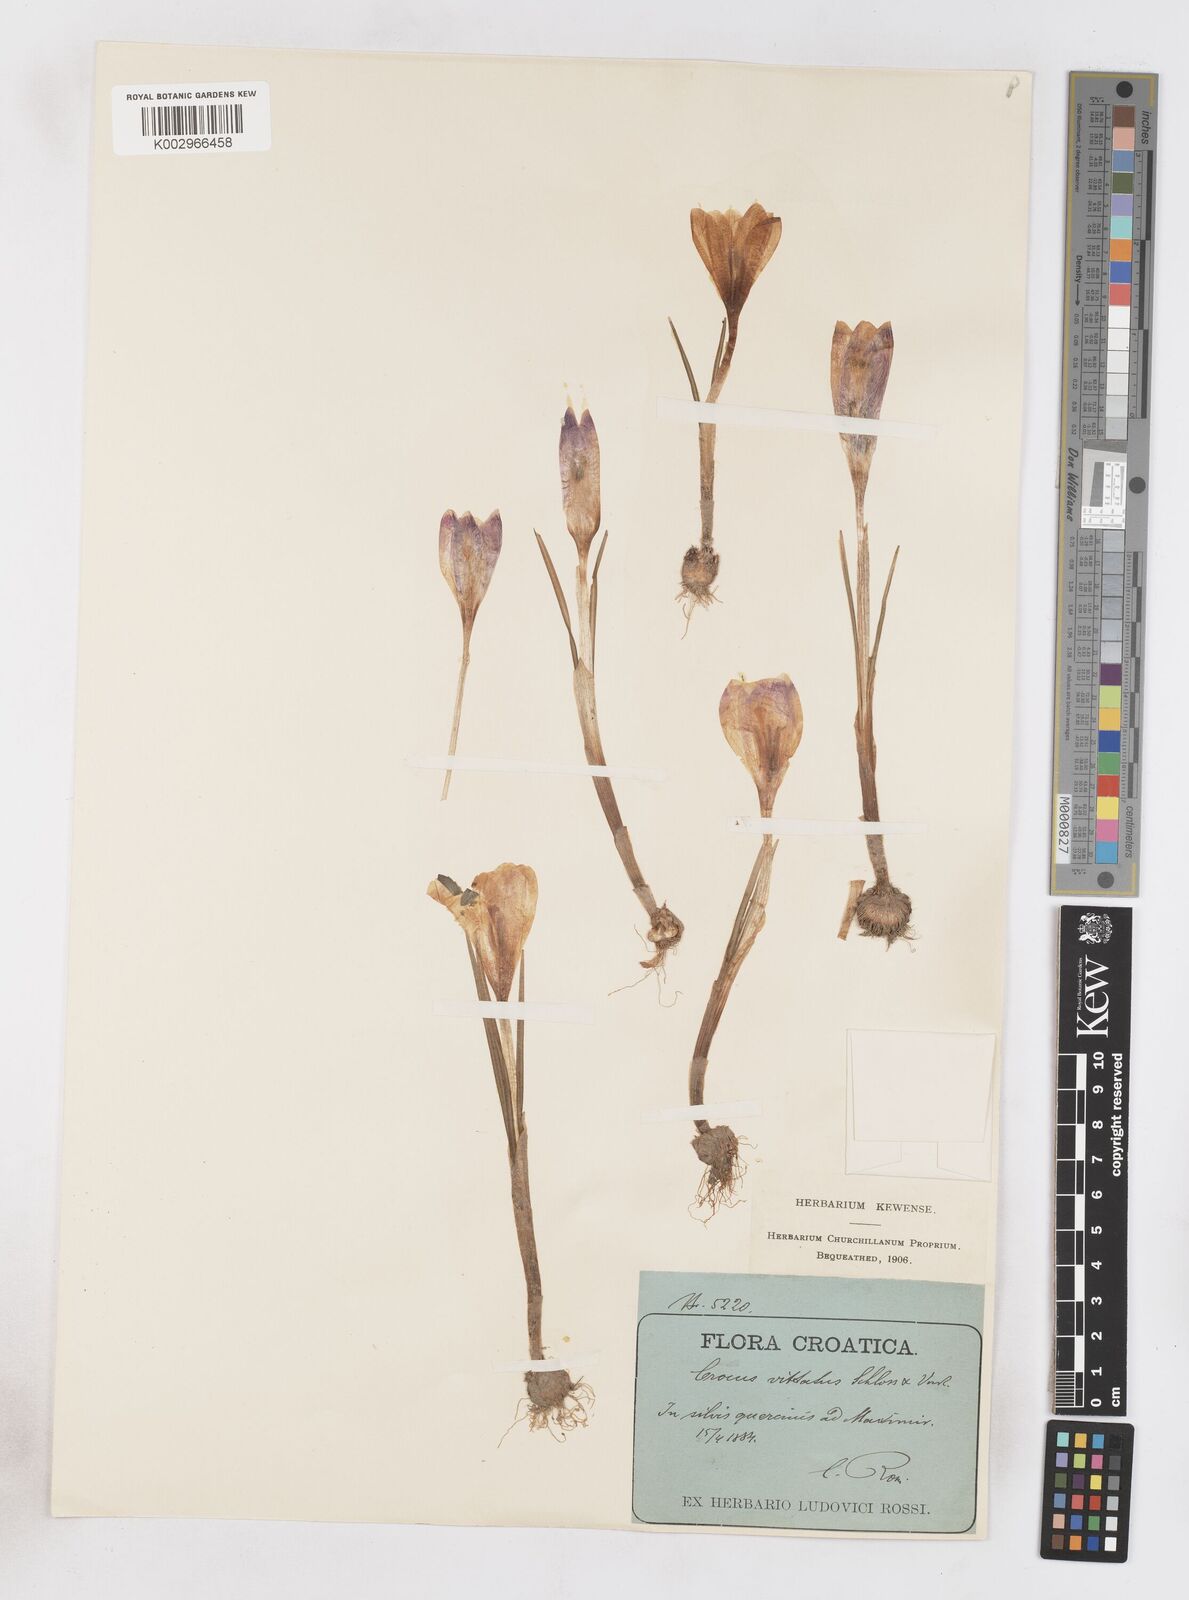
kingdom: Plantae
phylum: Tracheophyta
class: Liliopsida
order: Asparagales
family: Iridaceae
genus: Crocus
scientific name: Crocus vernus
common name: Spring crocus
